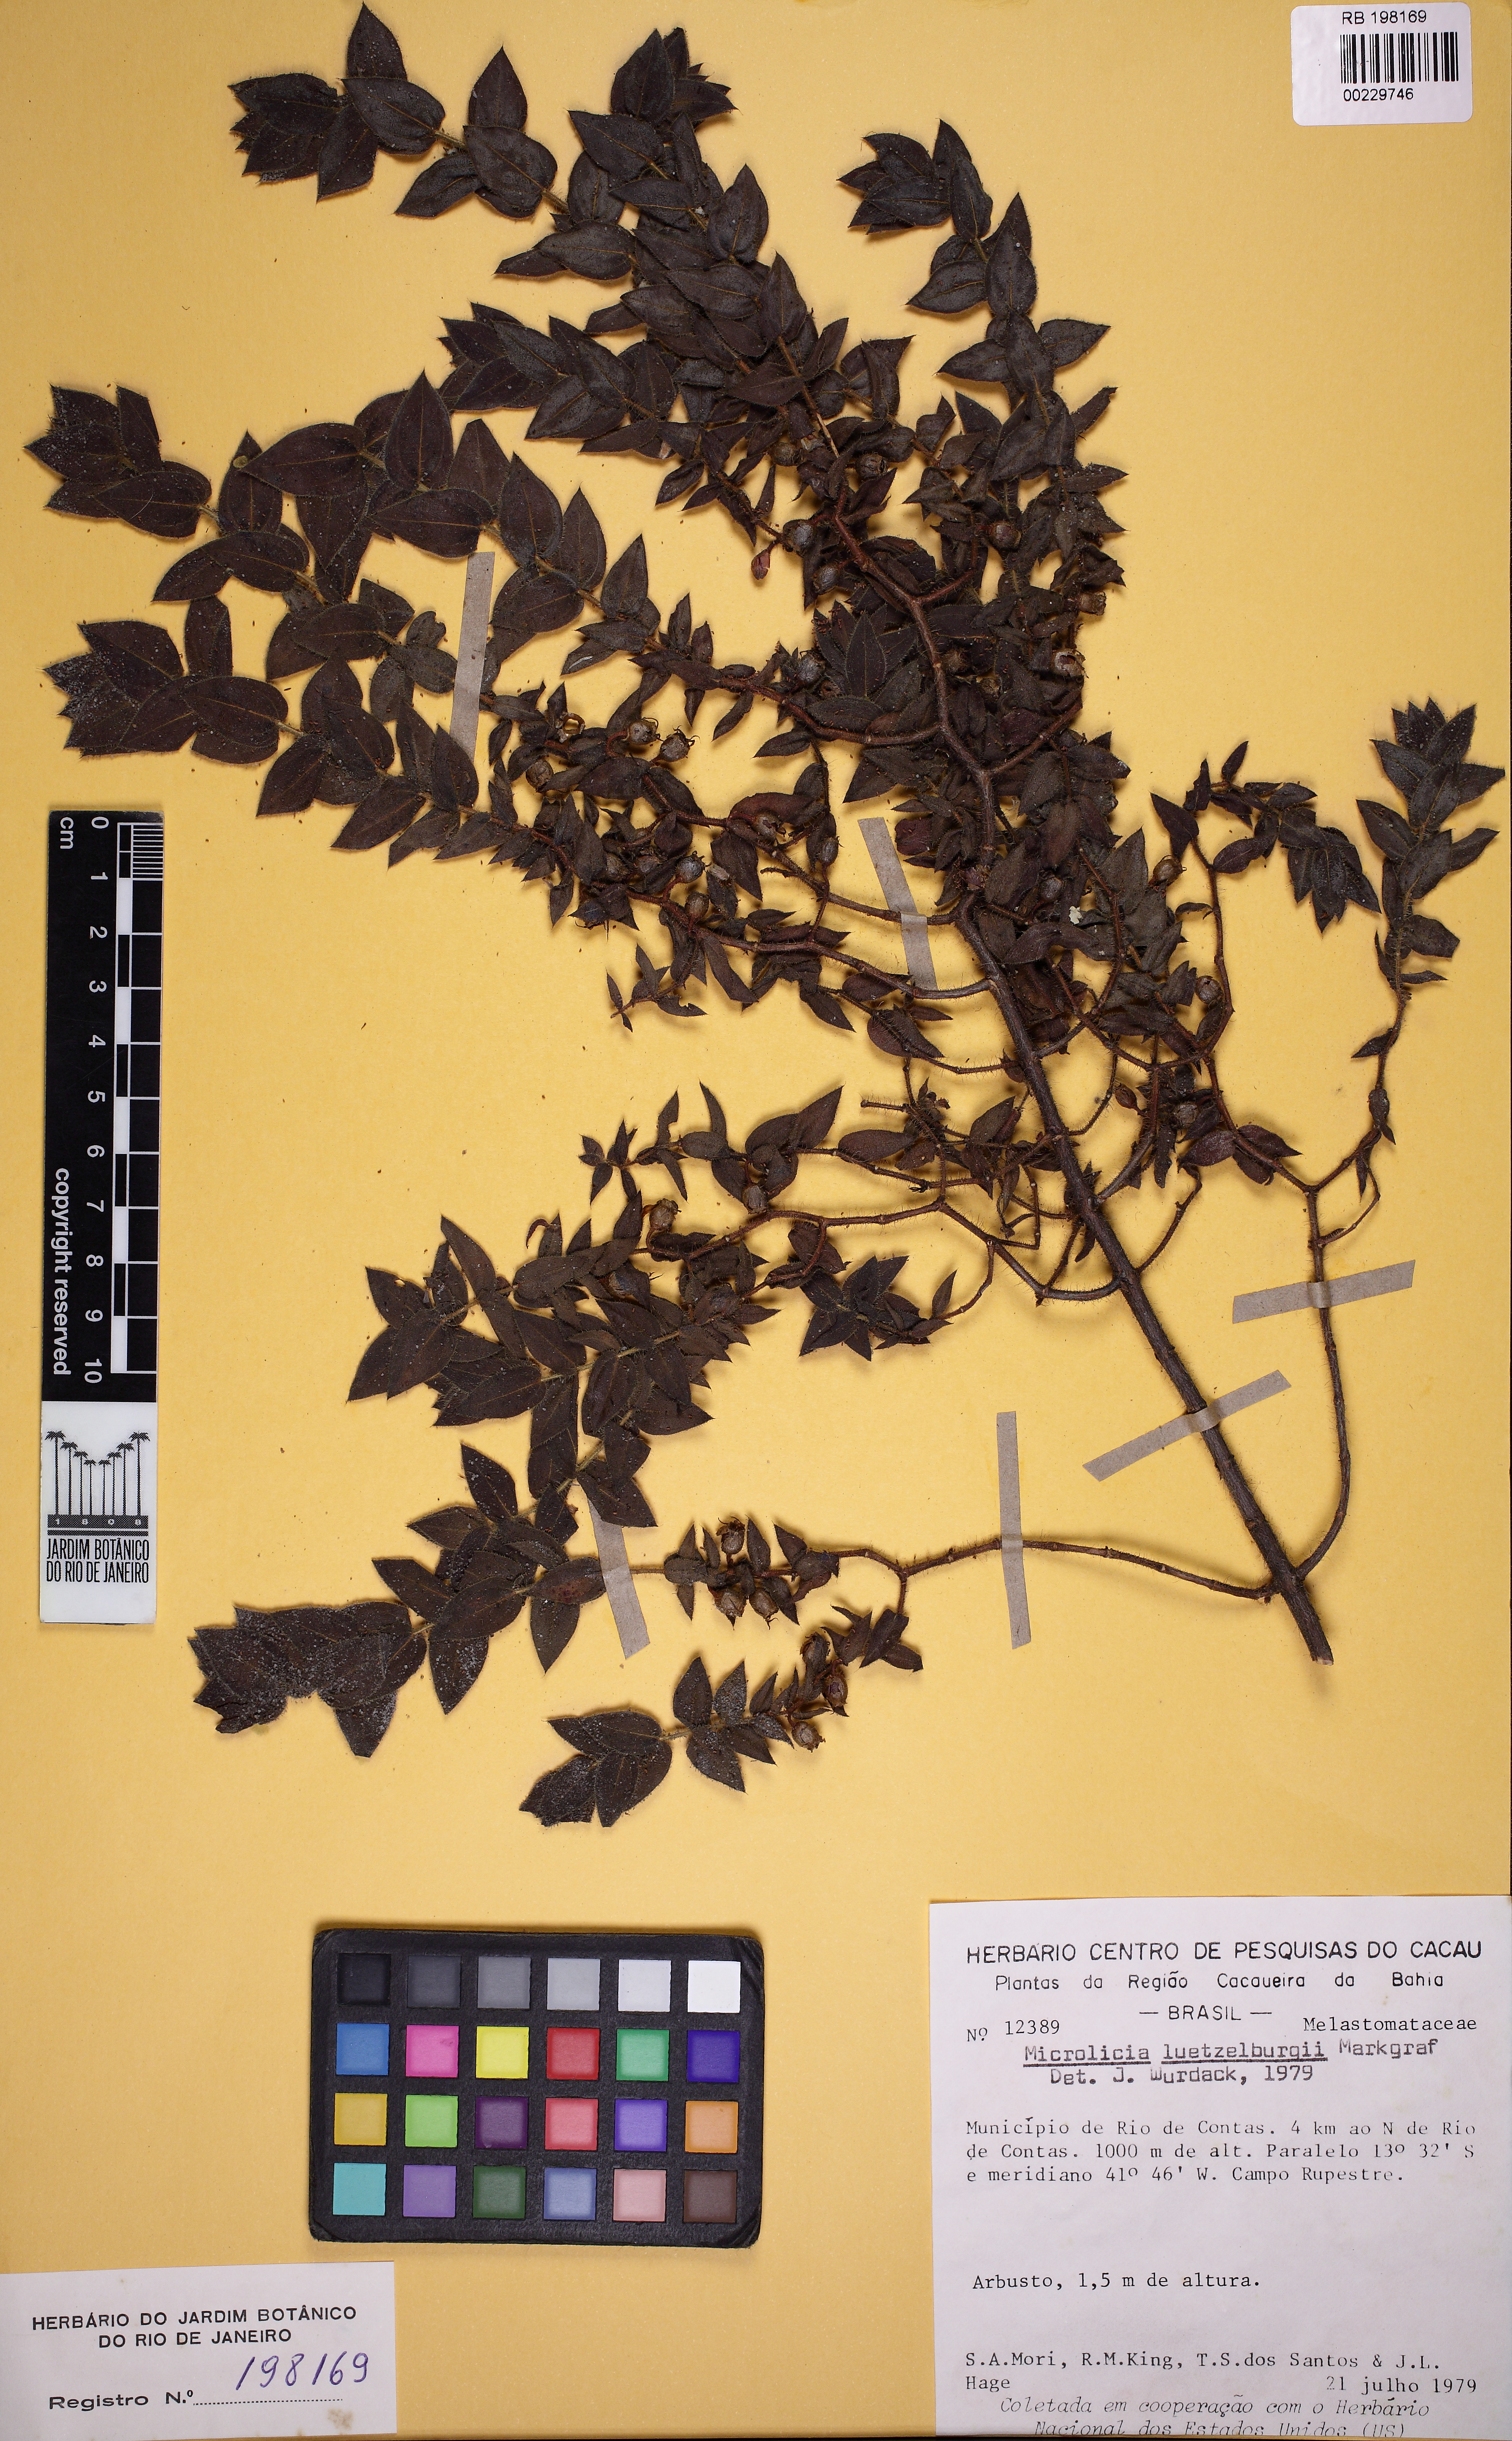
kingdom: Plantae
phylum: Tracheophyta
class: Magnoliopsida
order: Myrtales
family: Melastomataceae
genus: Microlicia
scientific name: Microlicia luetzelburgii
